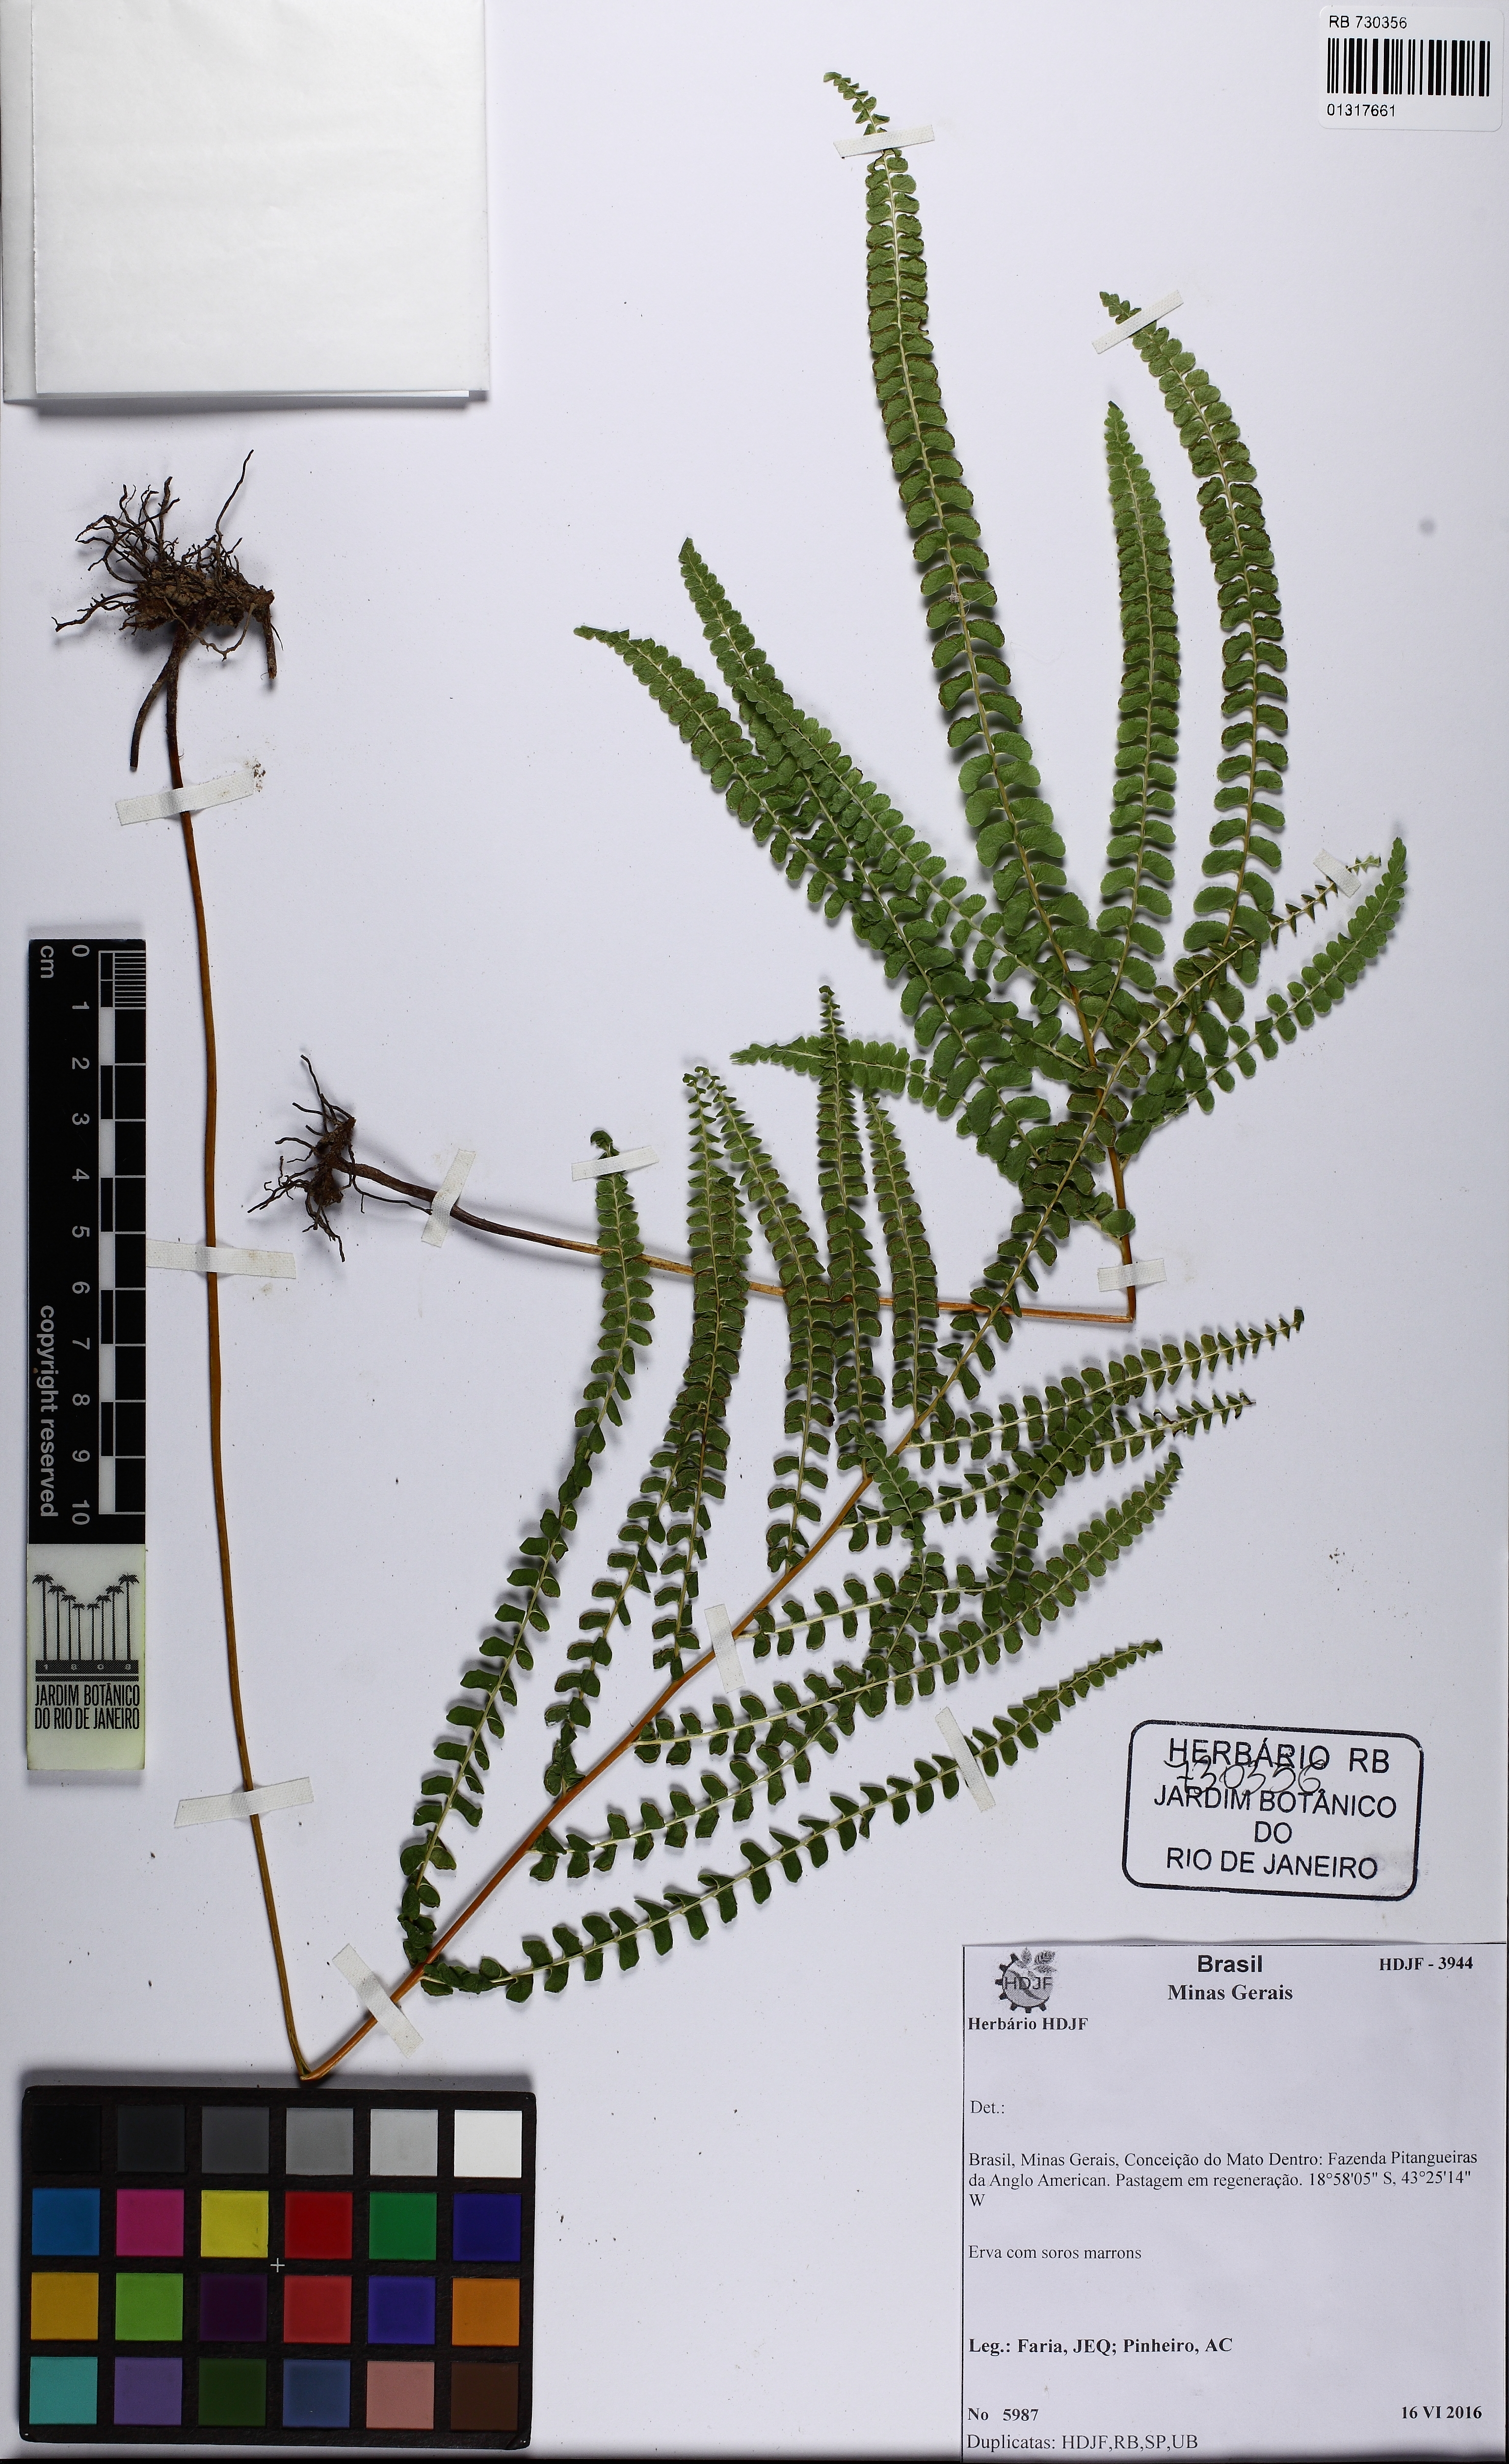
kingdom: Plantae
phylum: Tracheophyta
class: Polypodiopsida
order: Polypodiales
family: Lindsaeaceae
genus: Lindsaea
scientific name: Lindsaea
